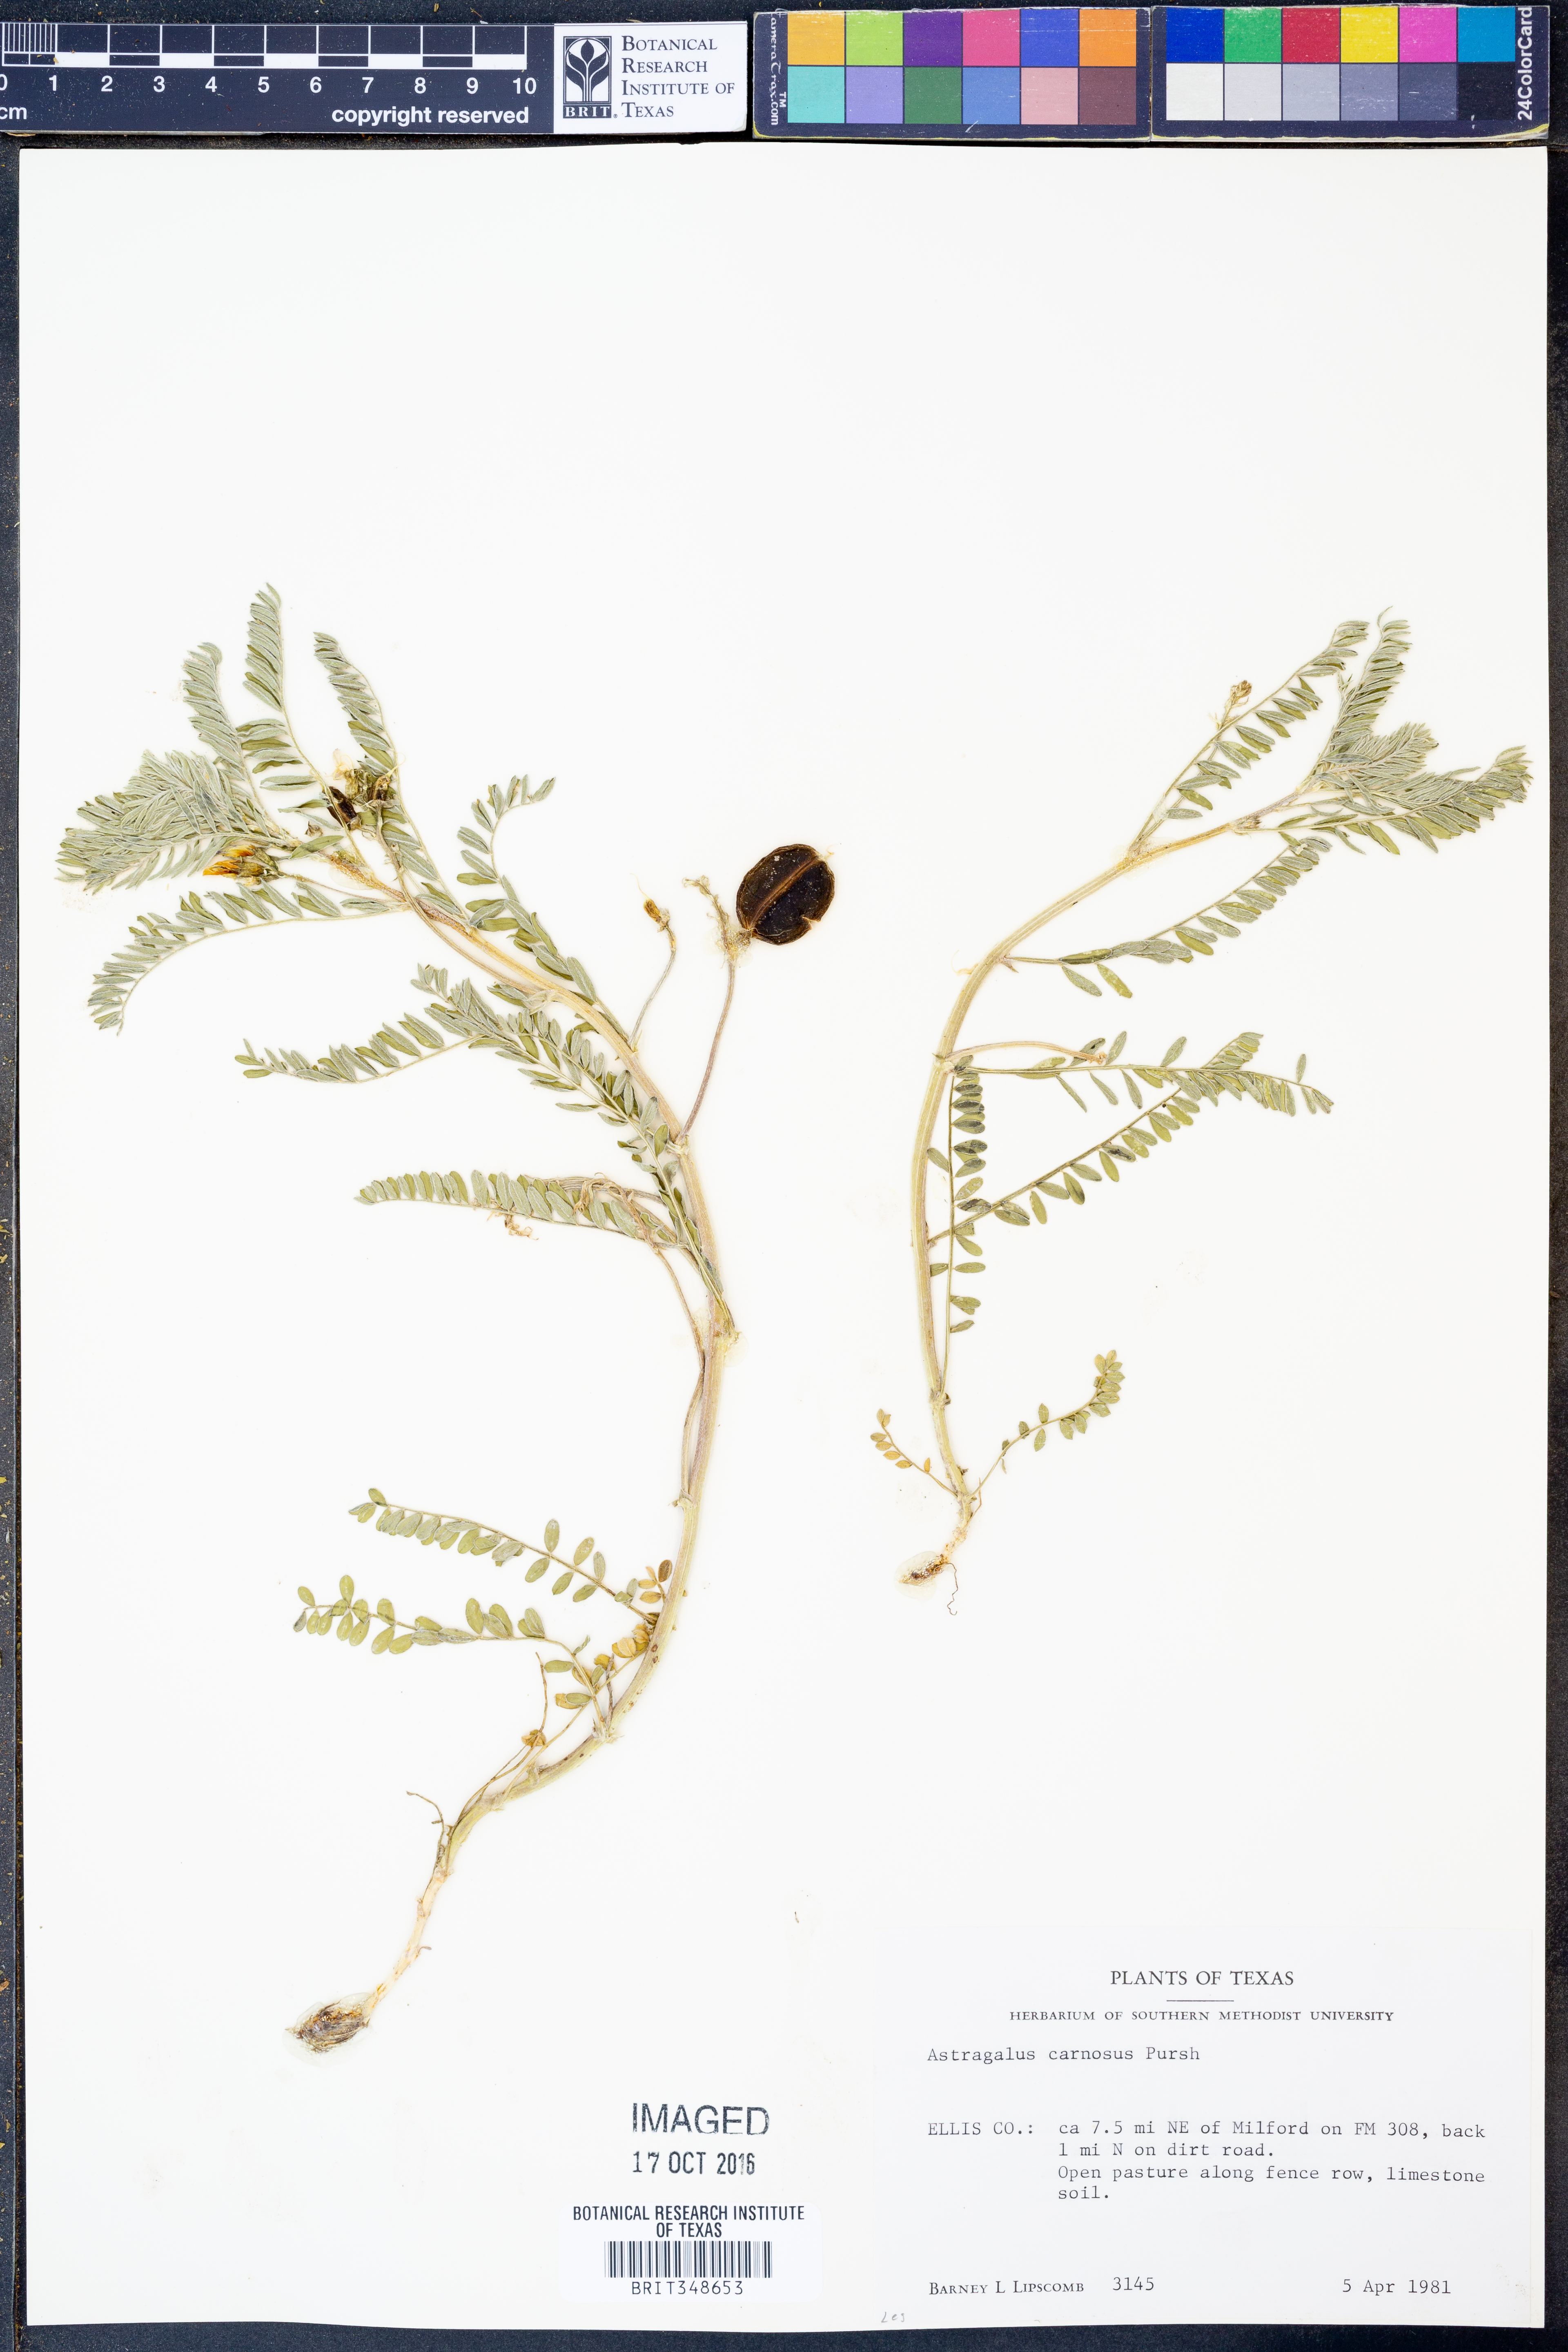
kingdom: Plantae
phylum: Tracheophyta
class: Magnoliopsida
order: Fabales
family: Fabaceae
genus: Astragalus
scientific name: Astragalus
